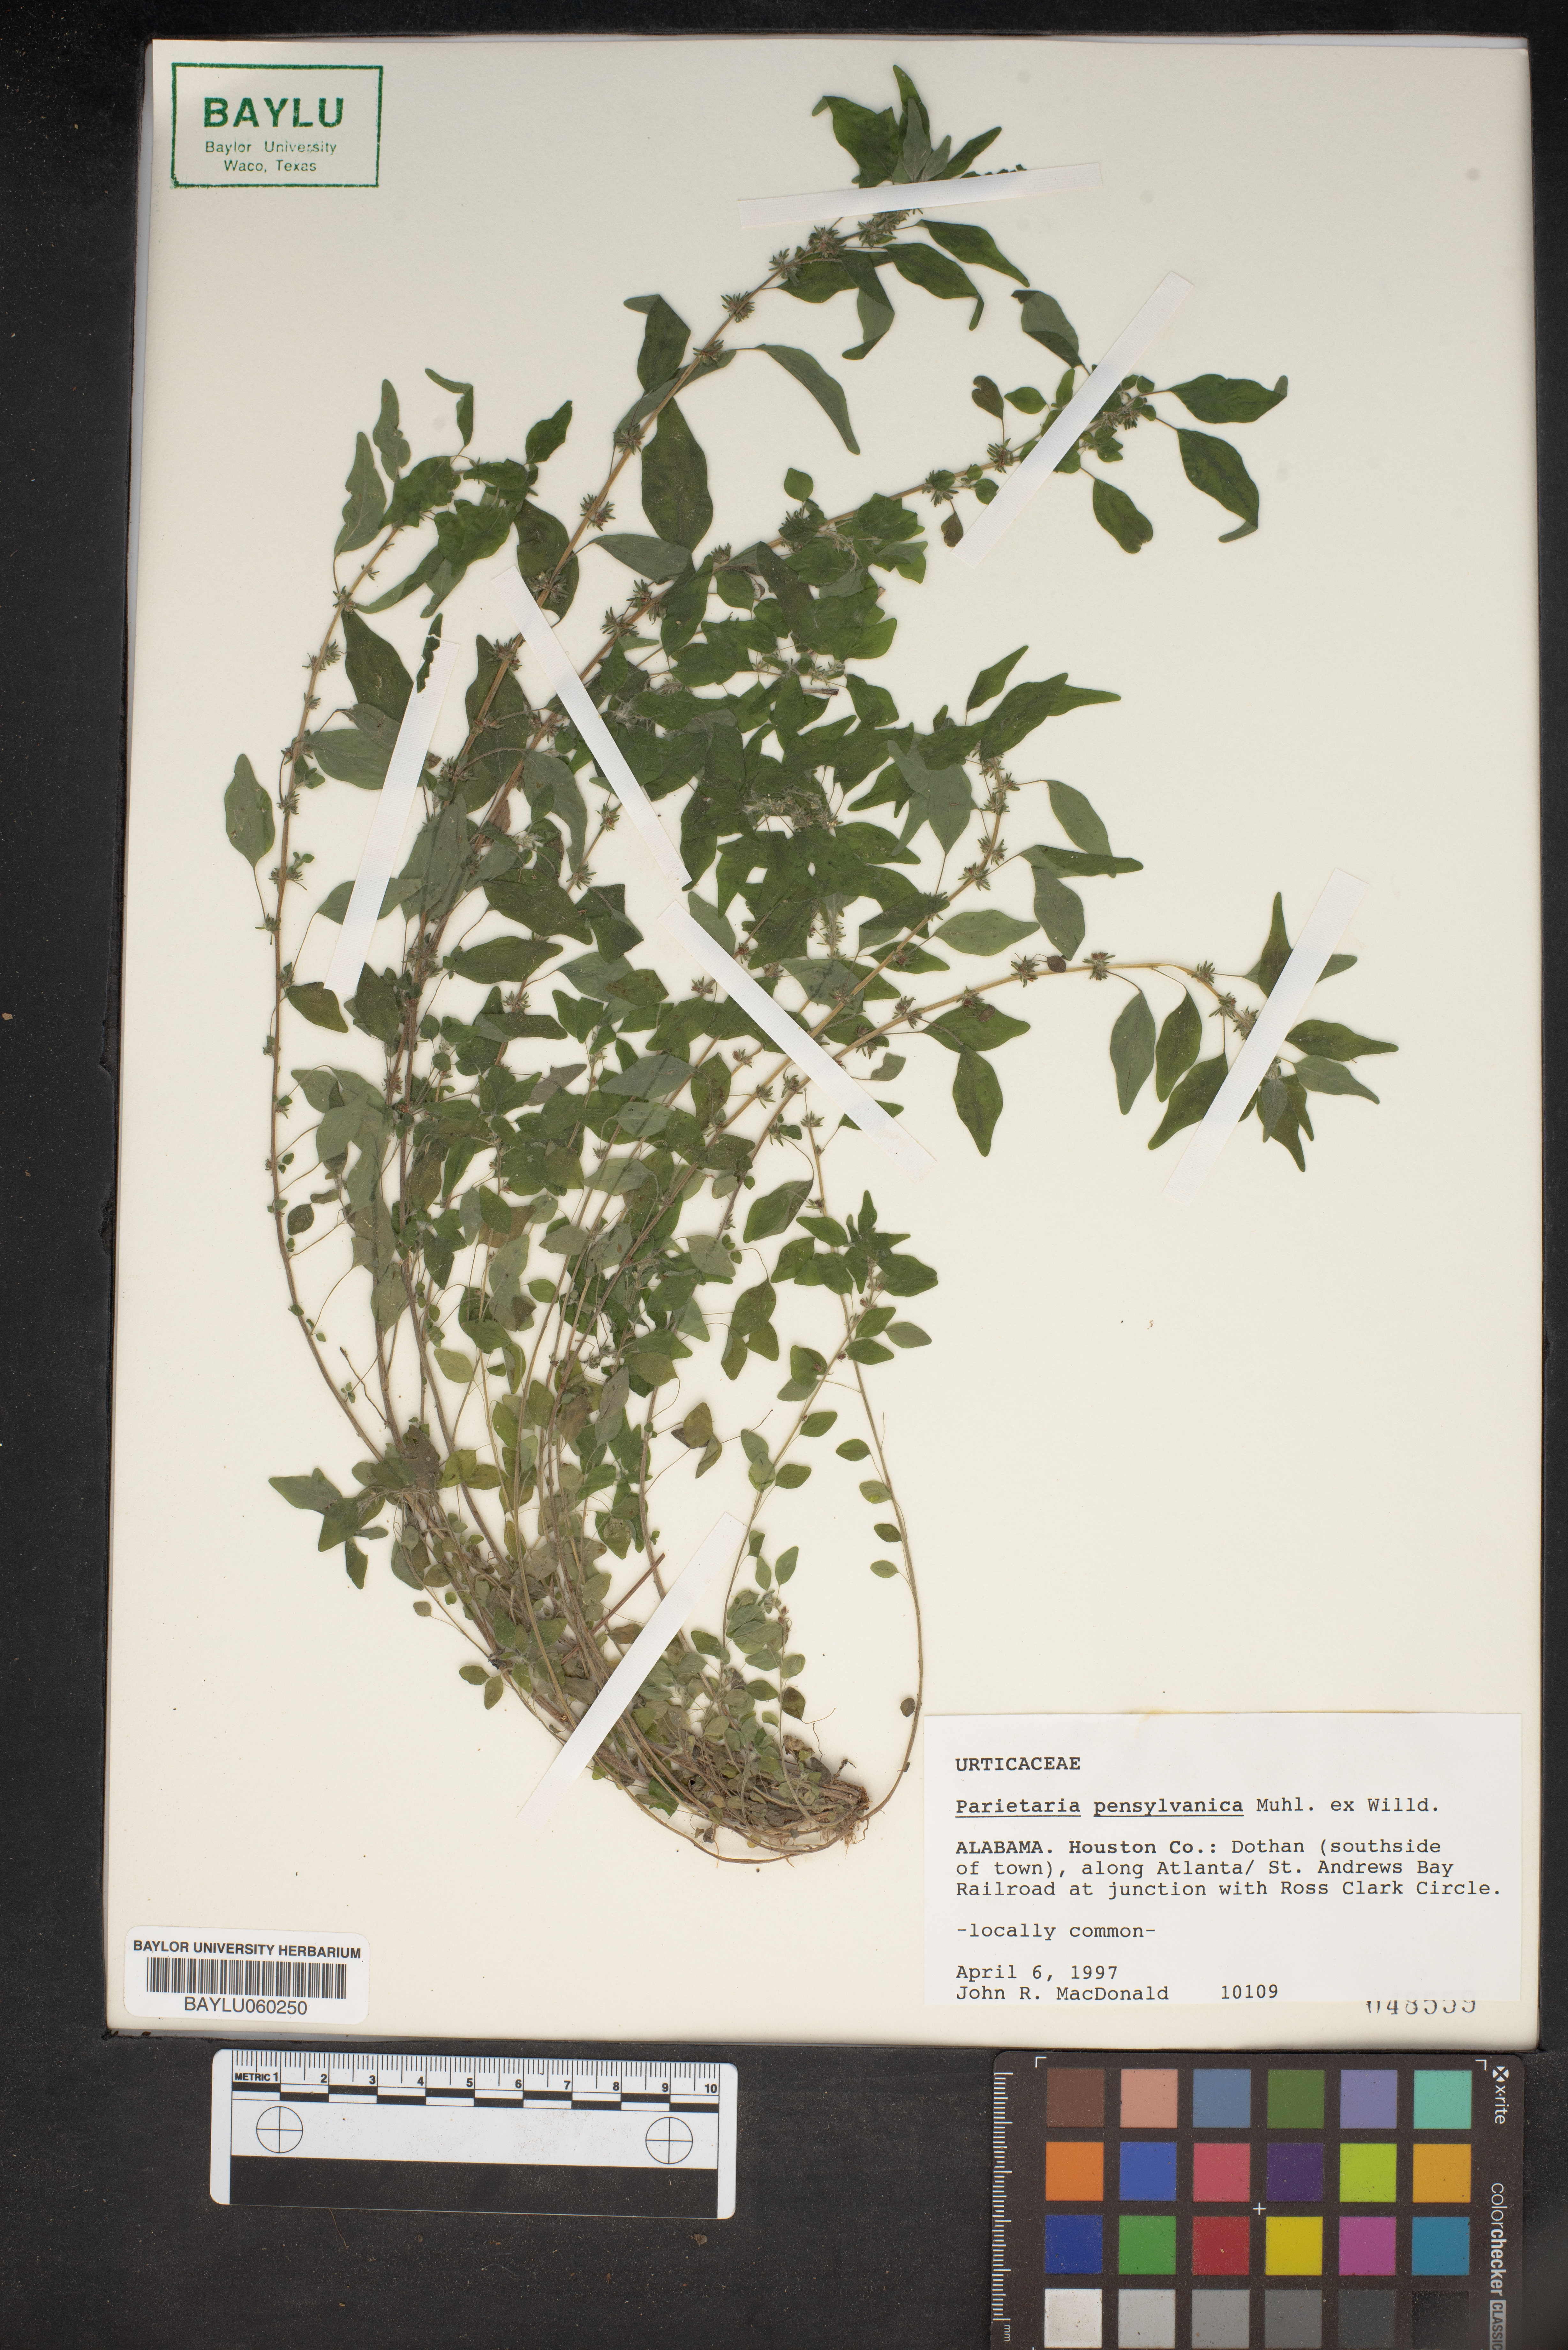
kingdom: Plantae
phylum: Tracheophyta
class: Magnoliopsida
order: Rosales
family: Urticaceae
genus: Parietaria
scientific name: Parietaria pensylvanica
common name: Pennsylvania pellitory
